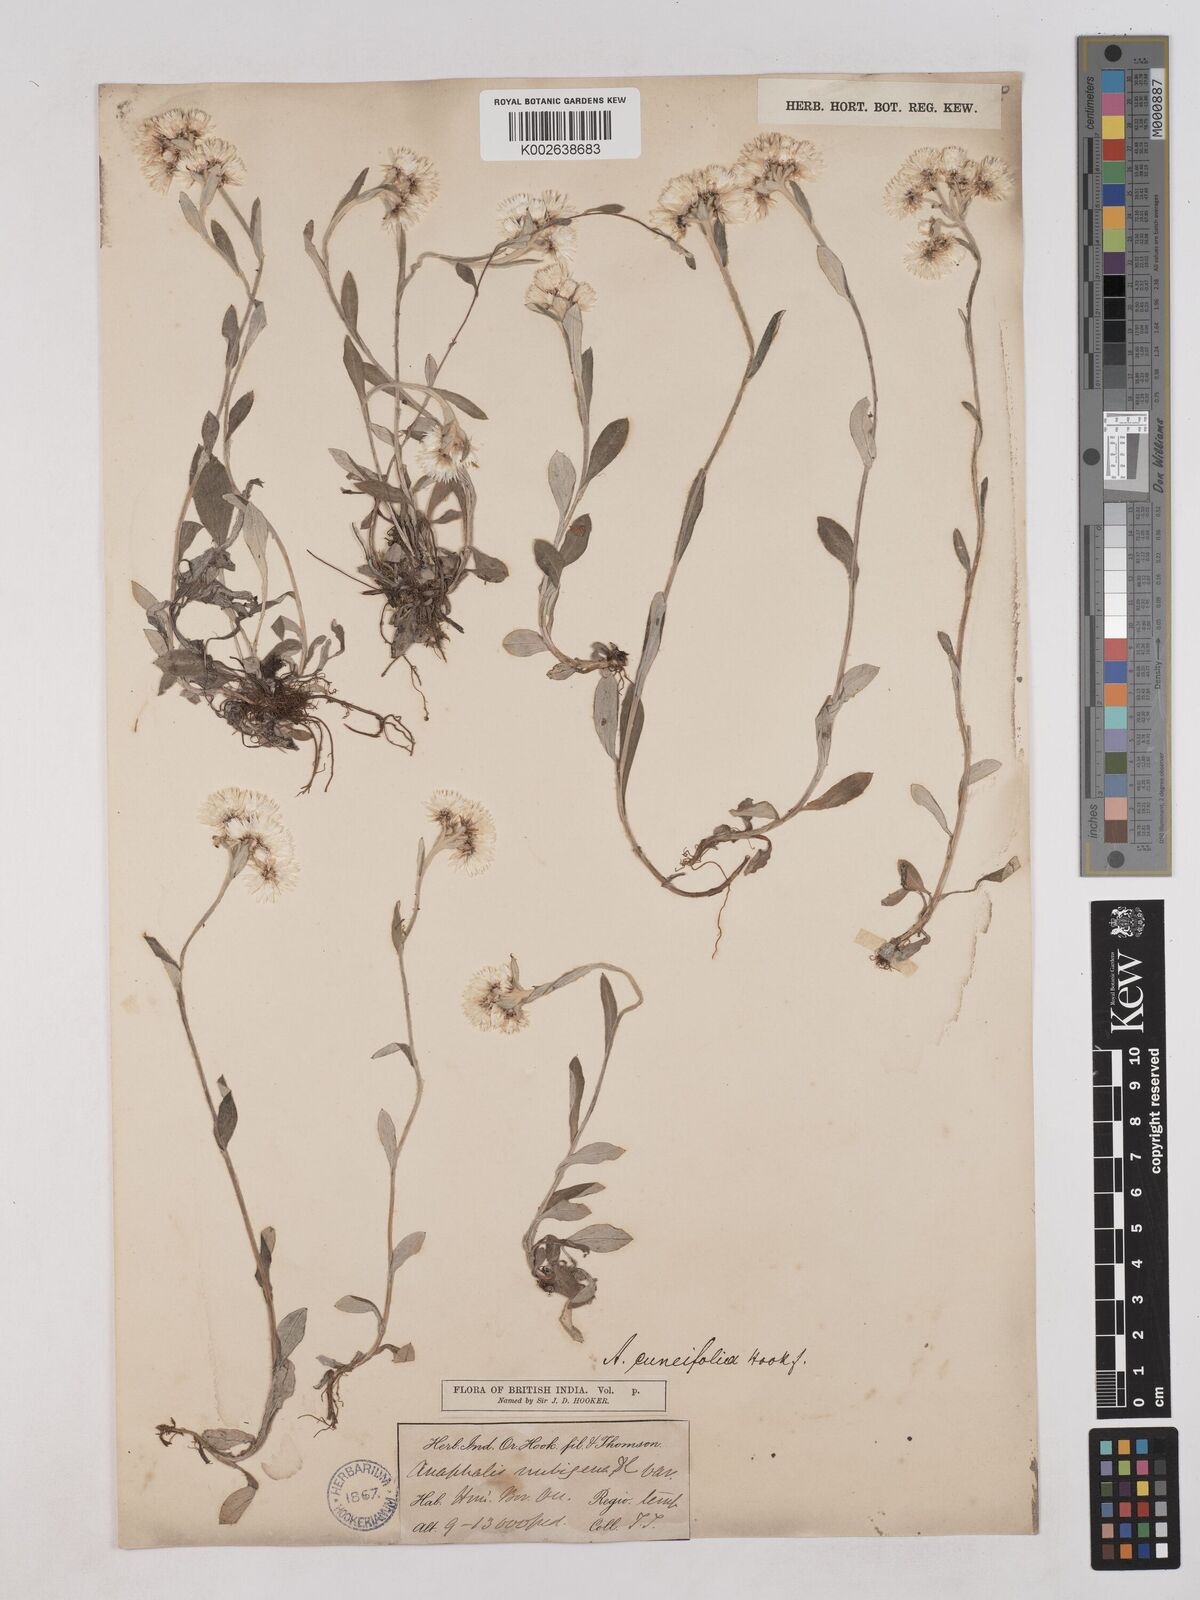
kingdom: Plantae
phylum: Tracheophyta
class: Magnoliopsida
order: Asterales
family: Asteraceae
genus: Anaphalioides
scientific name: Anaphalioides trinervis
